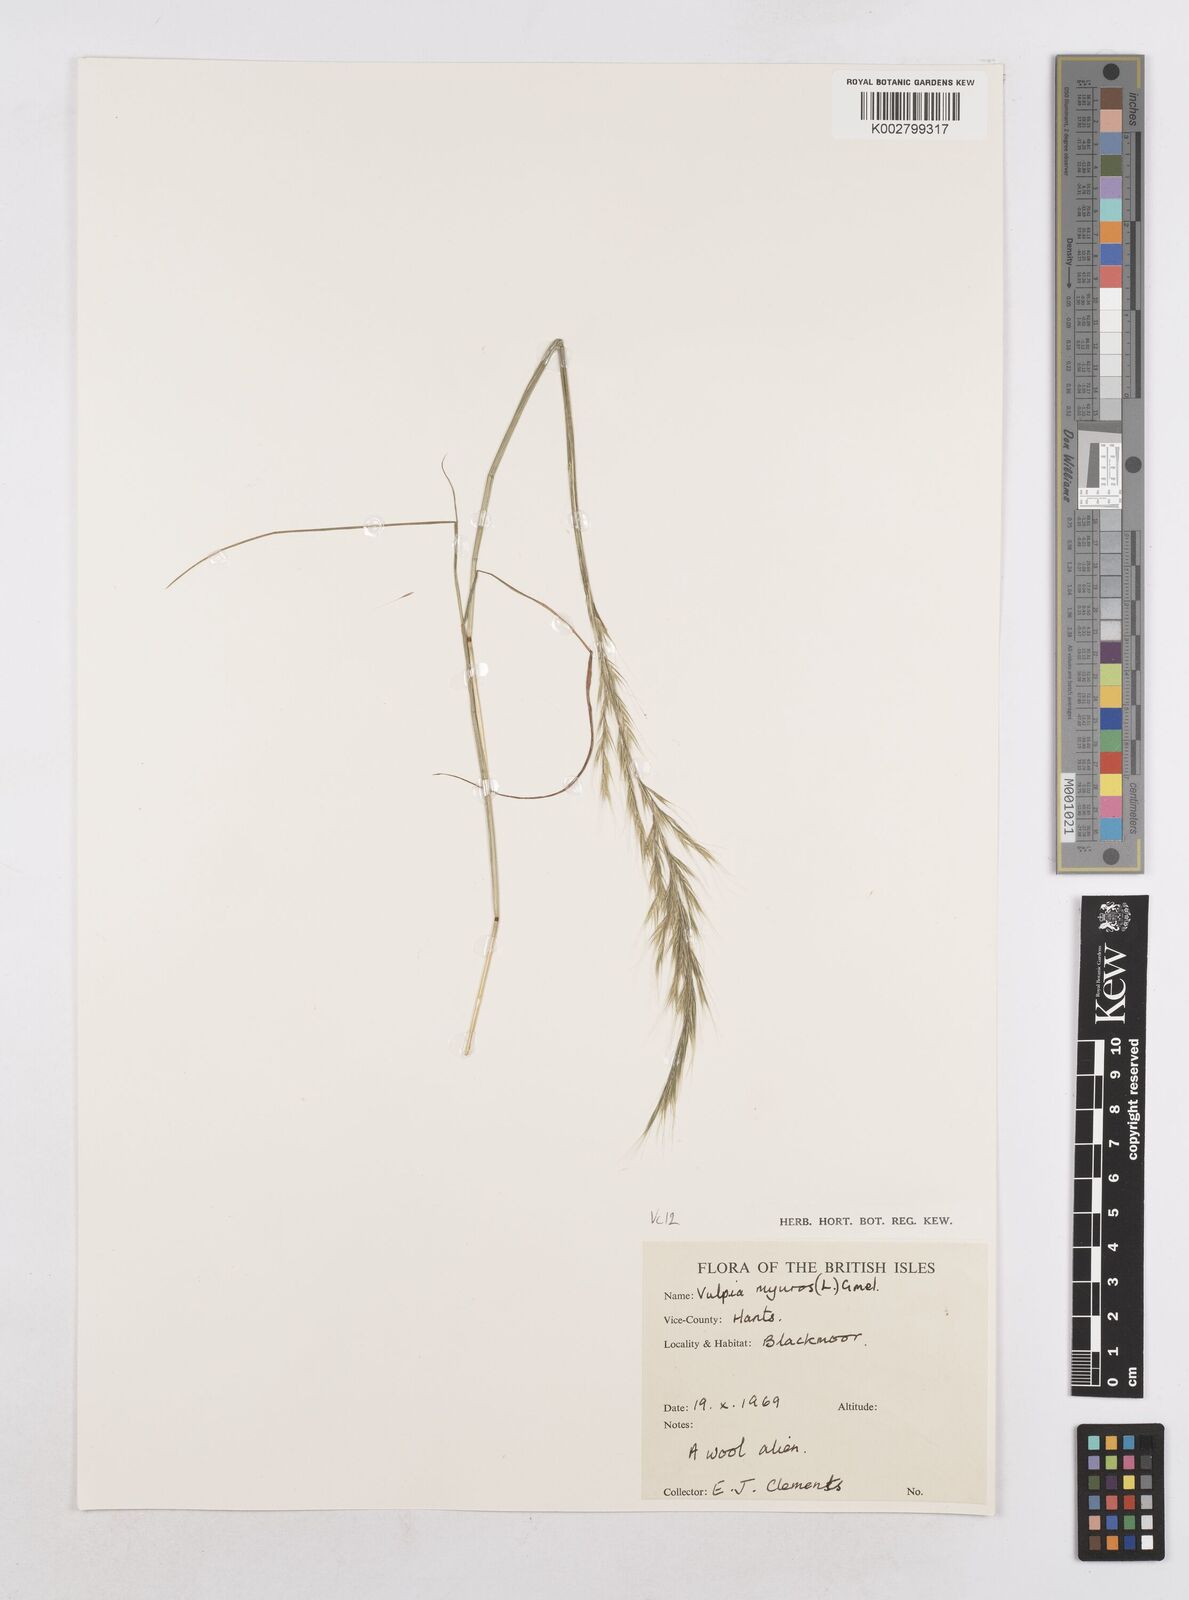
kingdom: Plantae
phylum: Tracheophyta
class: Liliopsida
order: Poales
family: Poaceae
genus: Festuca
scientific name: Festuca myuros
